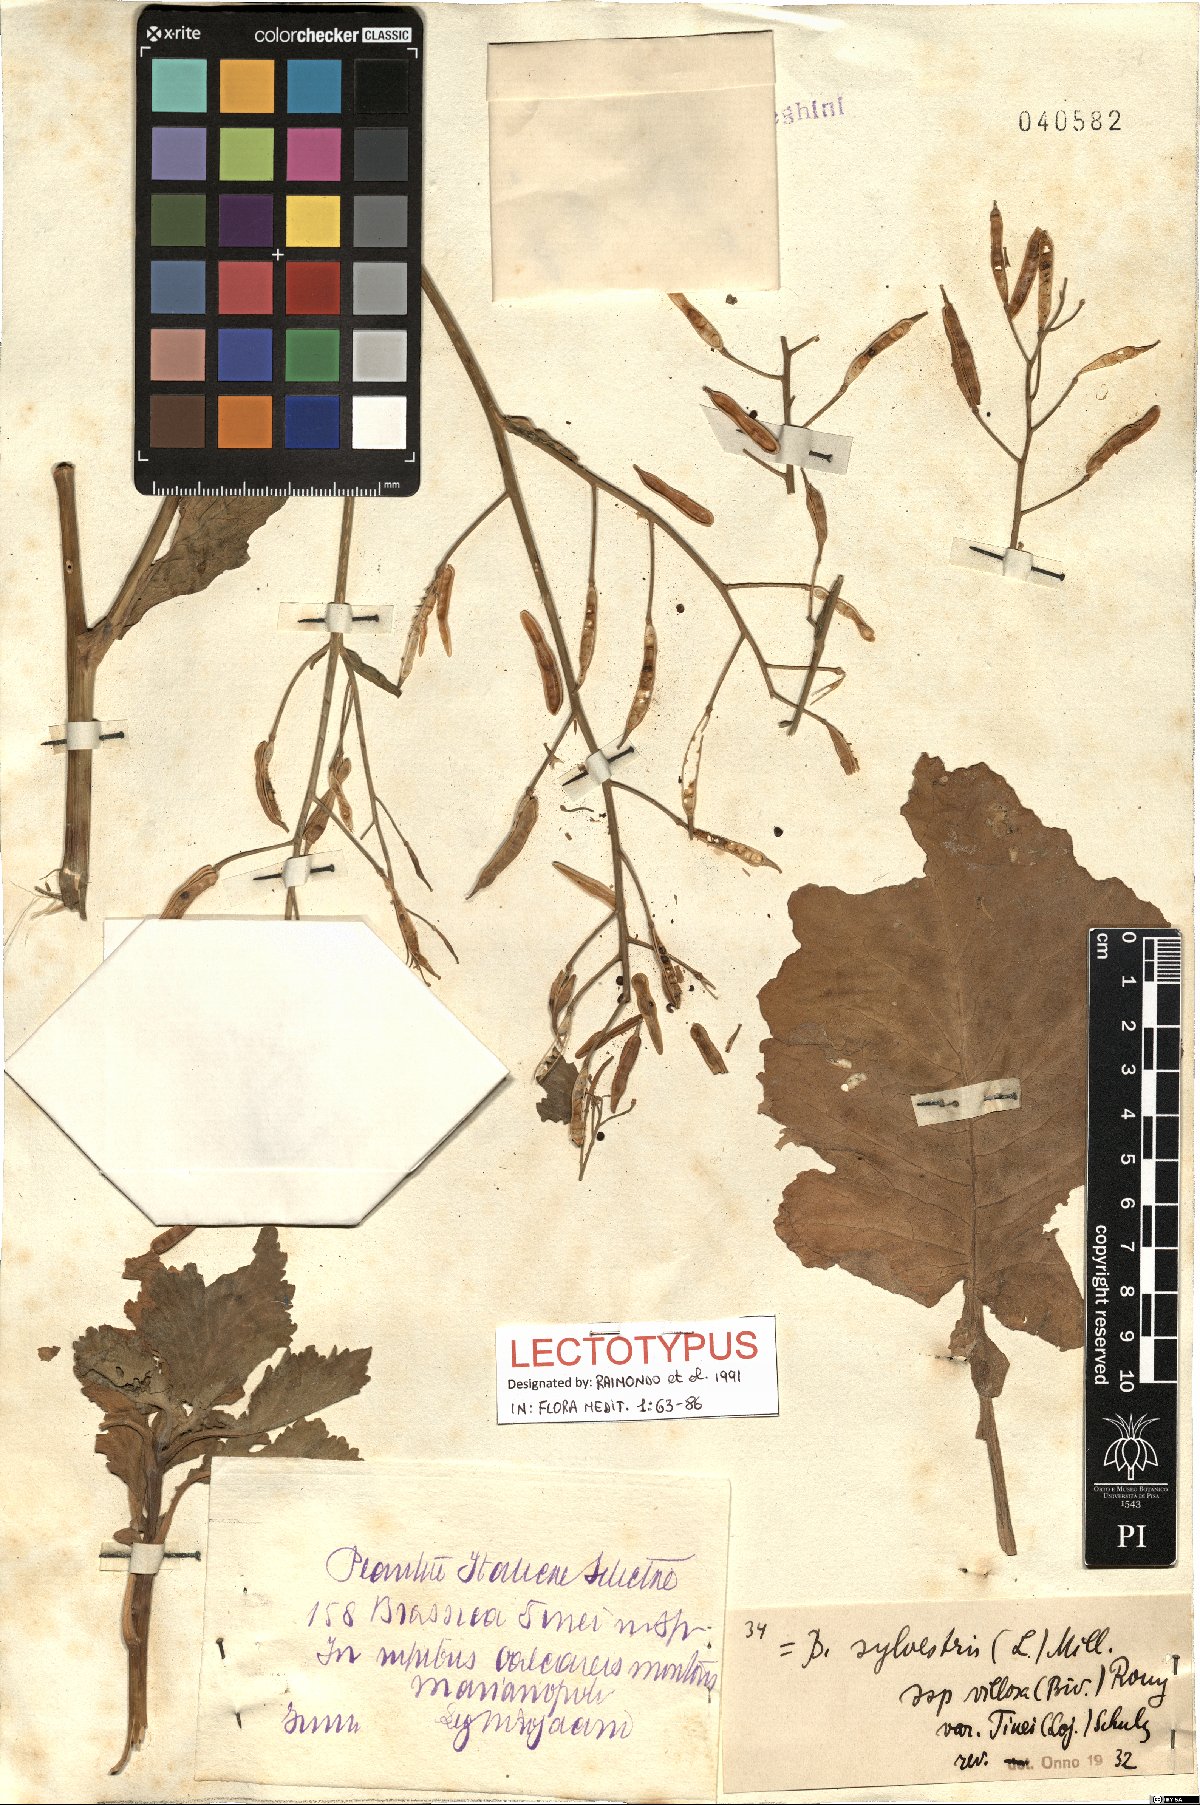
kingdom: Plantae
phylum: Tracheophyta
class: Magnoliopsida
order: Brassicales
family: Brassicaceae
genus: Brassica
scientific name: Brassica oleracea
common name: Cabbage
